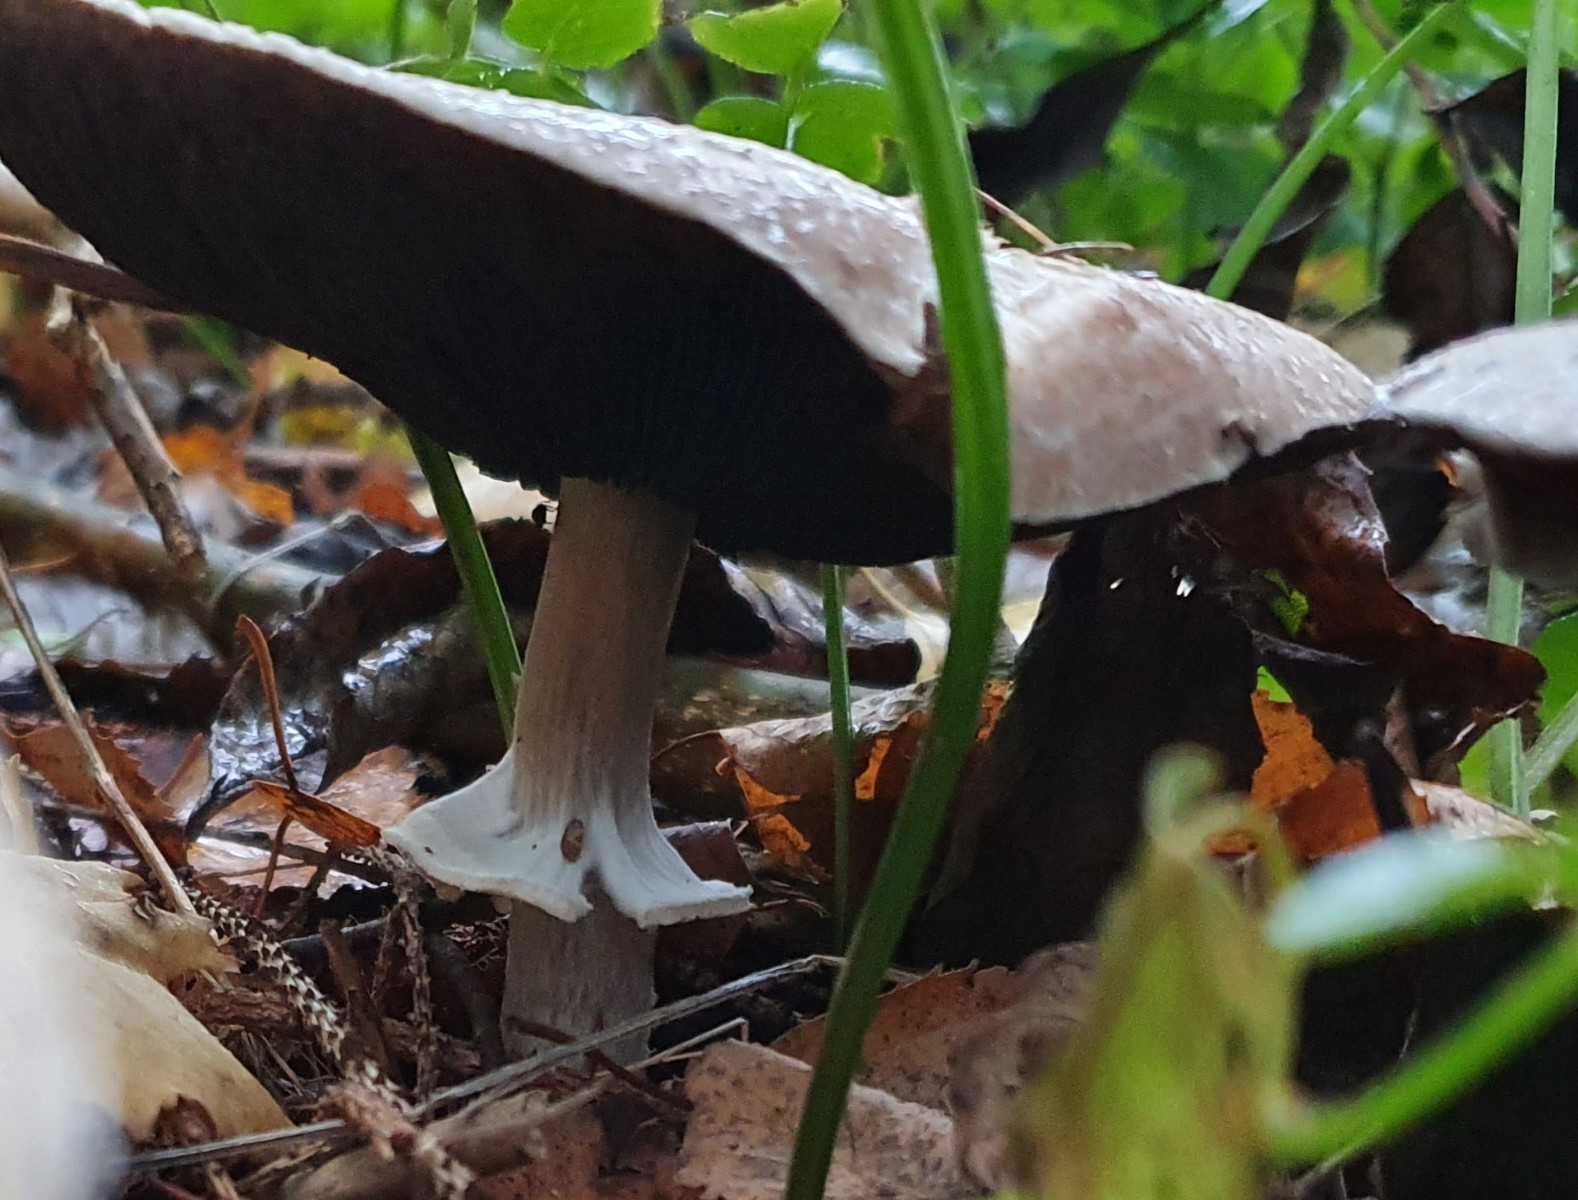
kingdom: Fungi
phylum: Basidiomycota
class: Agaricomycetes
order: Agaricales
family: Agaricaceae
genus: Agaricus
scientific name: Agaricus impudicus
